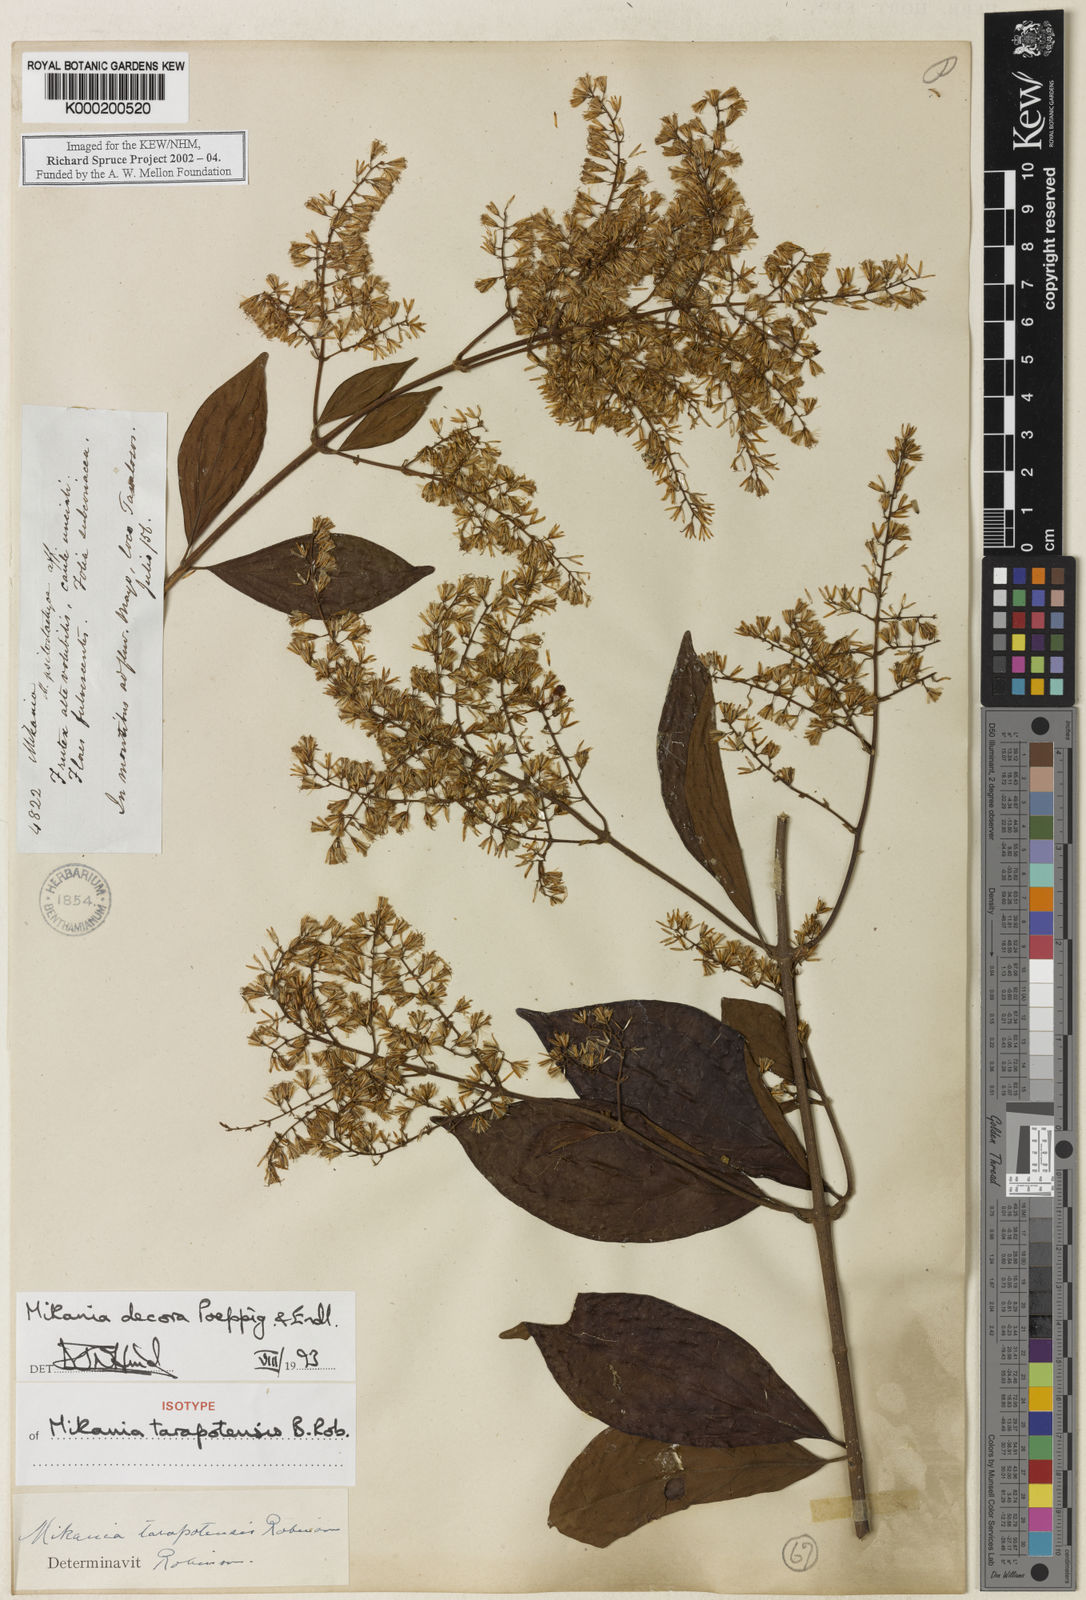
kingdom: Plantae
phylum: Tracheophyta
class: Magnoliopsida
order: Asterales
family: Asteraceae
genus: Mikania
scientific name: Mikania decora
